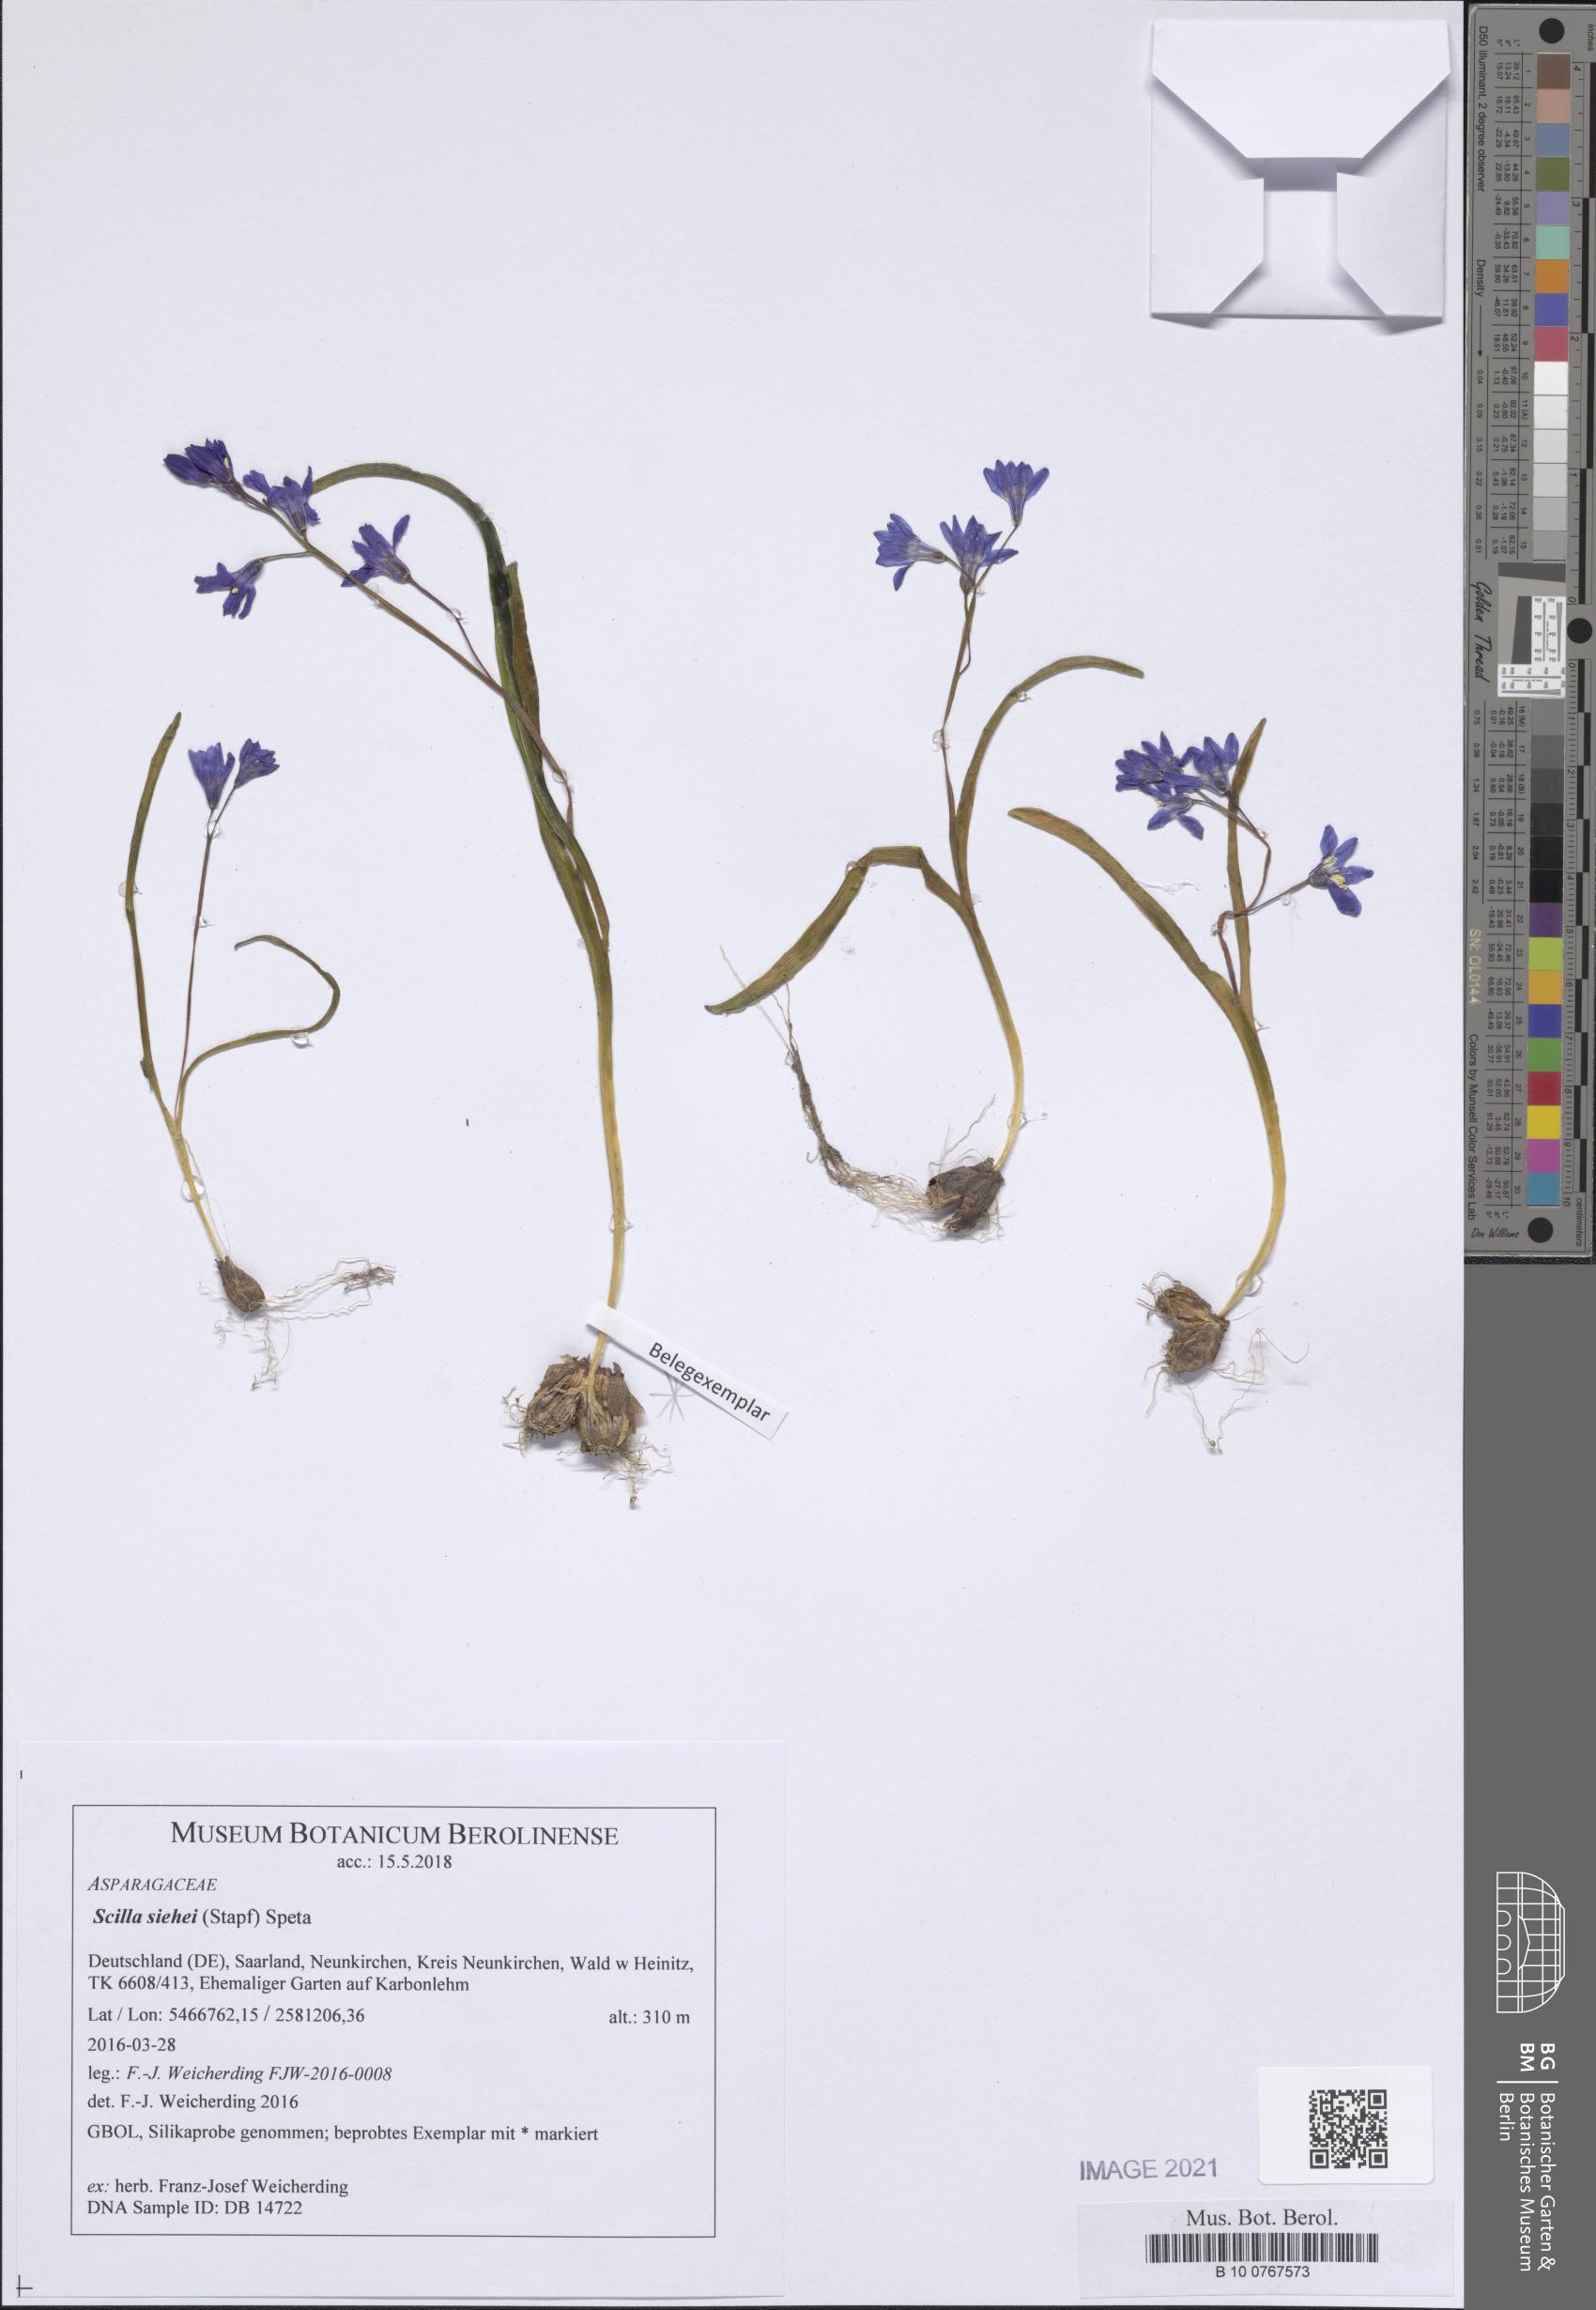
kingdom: Plantae
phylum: Tracheophyta
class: Liliopsida
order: Asparagales
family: Asparagaceae
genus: Scilla
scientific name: Scilla forbesii
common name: Glory-of-the-snow
